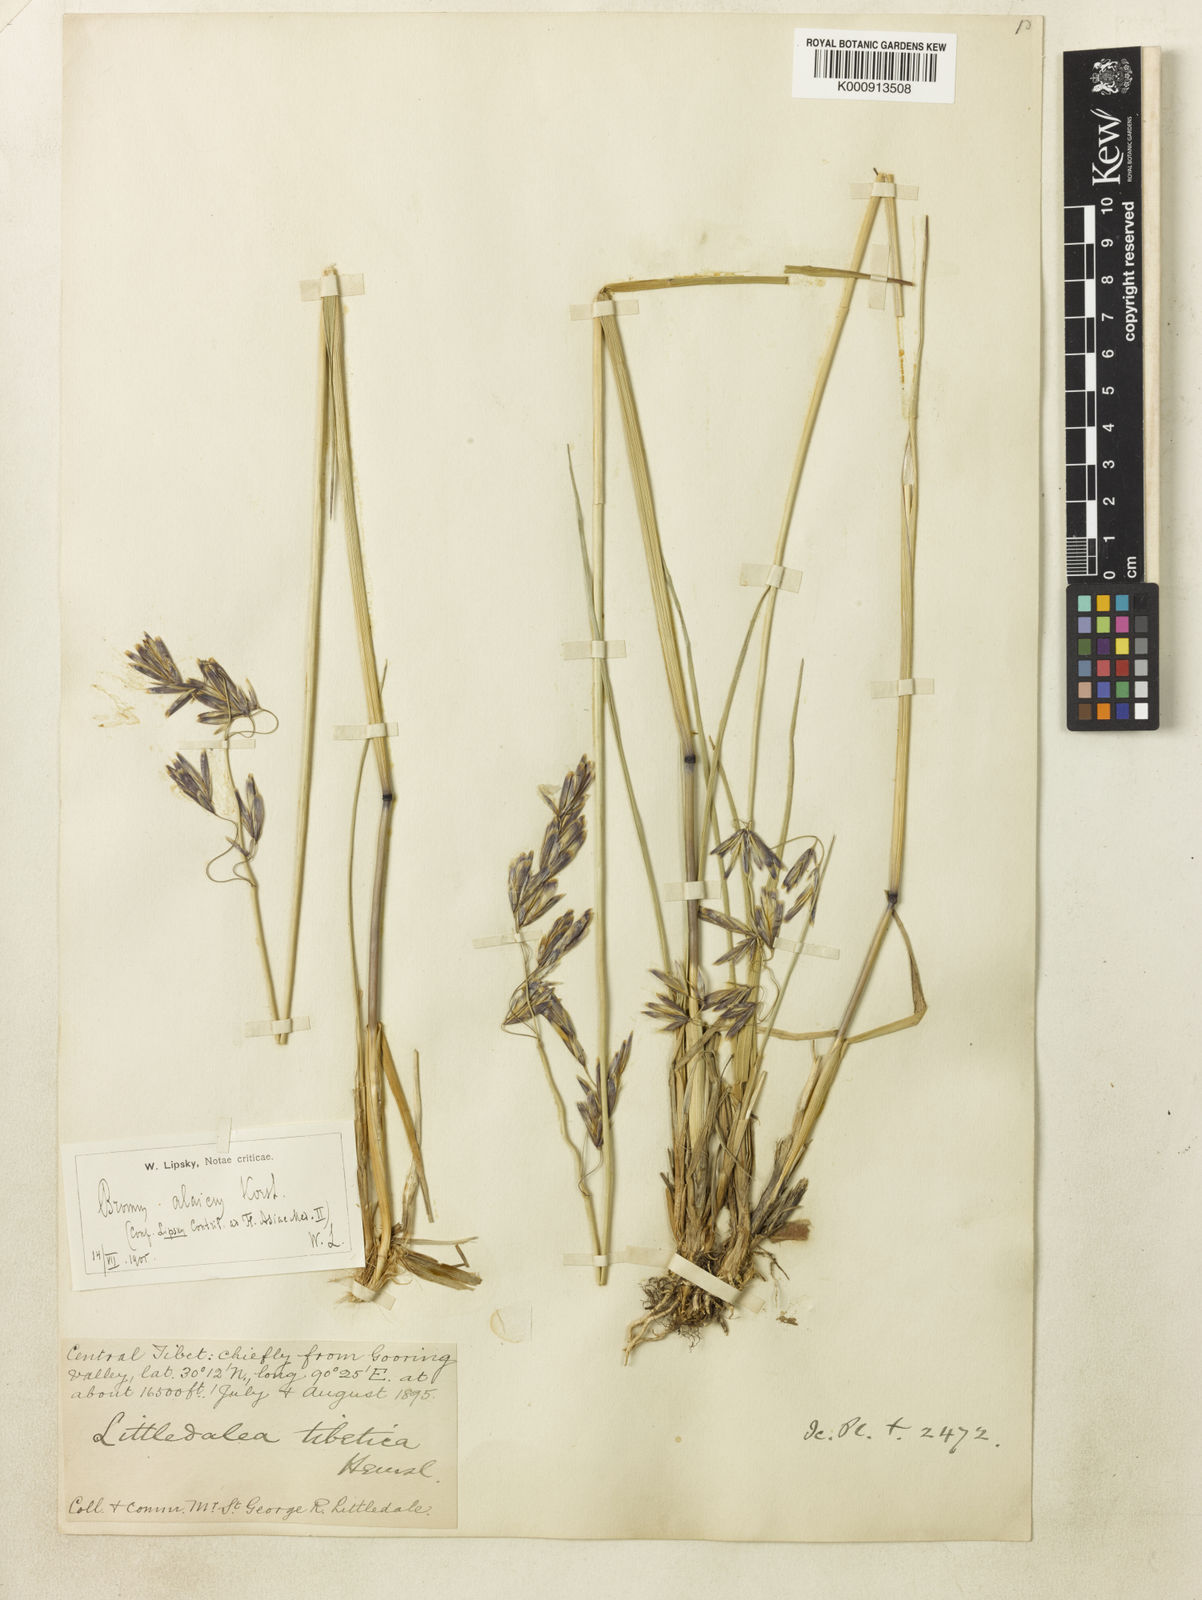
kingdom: Plantae
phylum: Tracheophyta
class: Liliopsida
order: Poales
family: Poaceae
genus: Littledalea
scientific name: Littledalea tibetica
